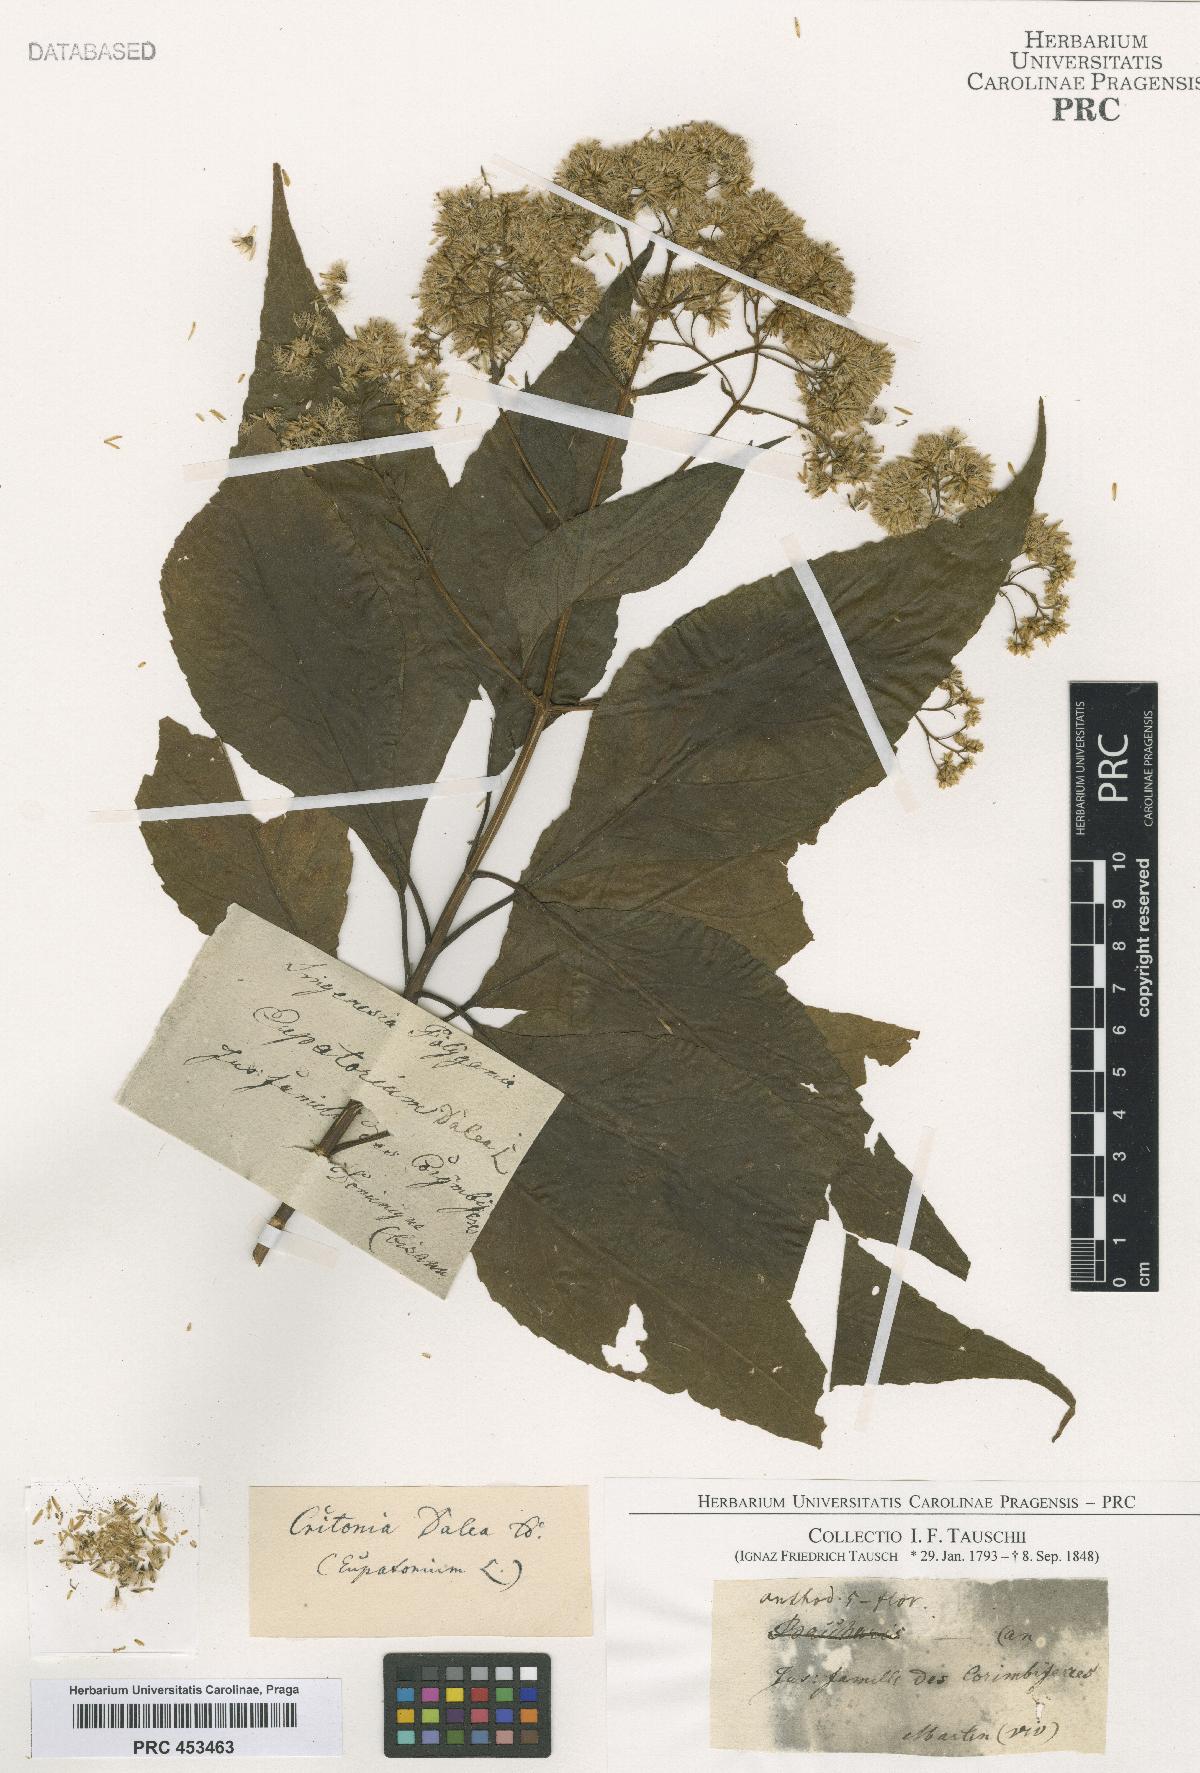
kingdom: Plantae
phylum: Tracheophyta
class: Magnoliopsida
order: Asterales
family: Asteraceae
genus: Eupatorium
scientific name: Eupatorium
